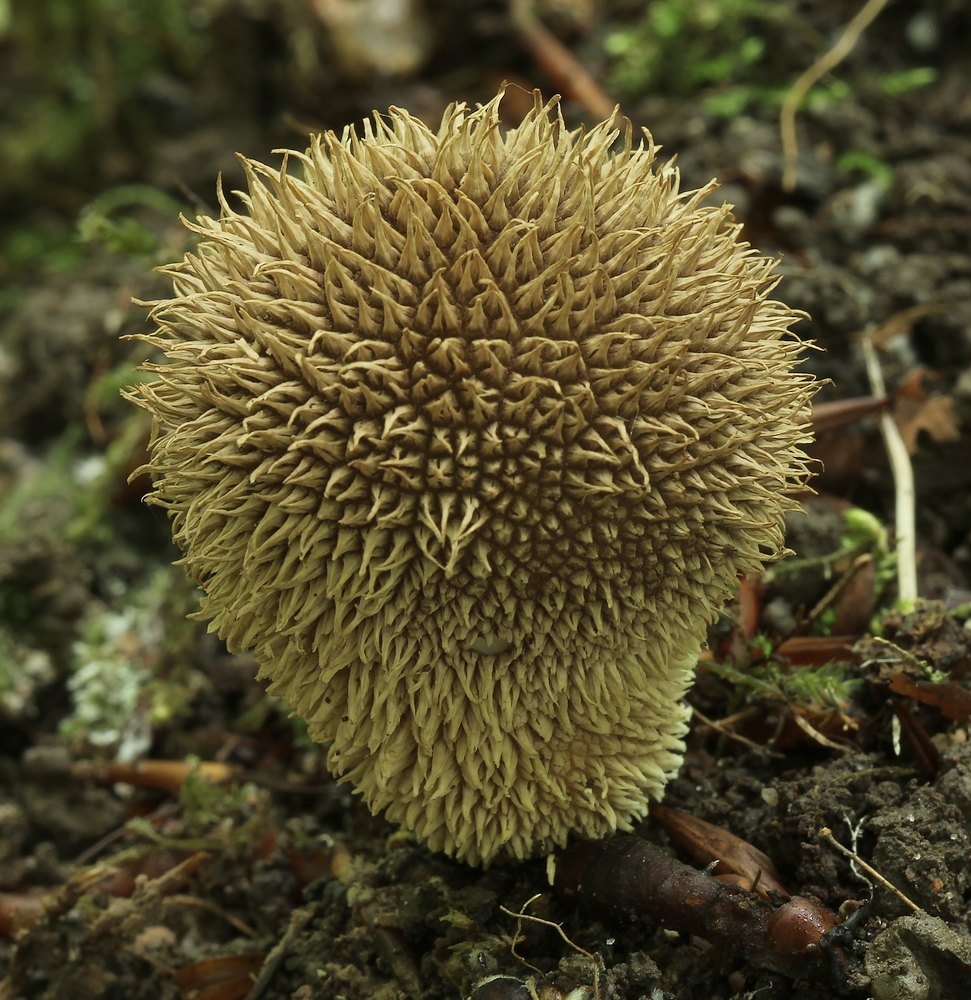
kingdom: Fungi
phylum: Basidiomycota
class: Agaricomycetes
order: Agaricales
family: Lycoperdaceae
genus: Lycoperdon
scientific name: Lycoperdon echinatum
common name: pindsvine-støvbold
